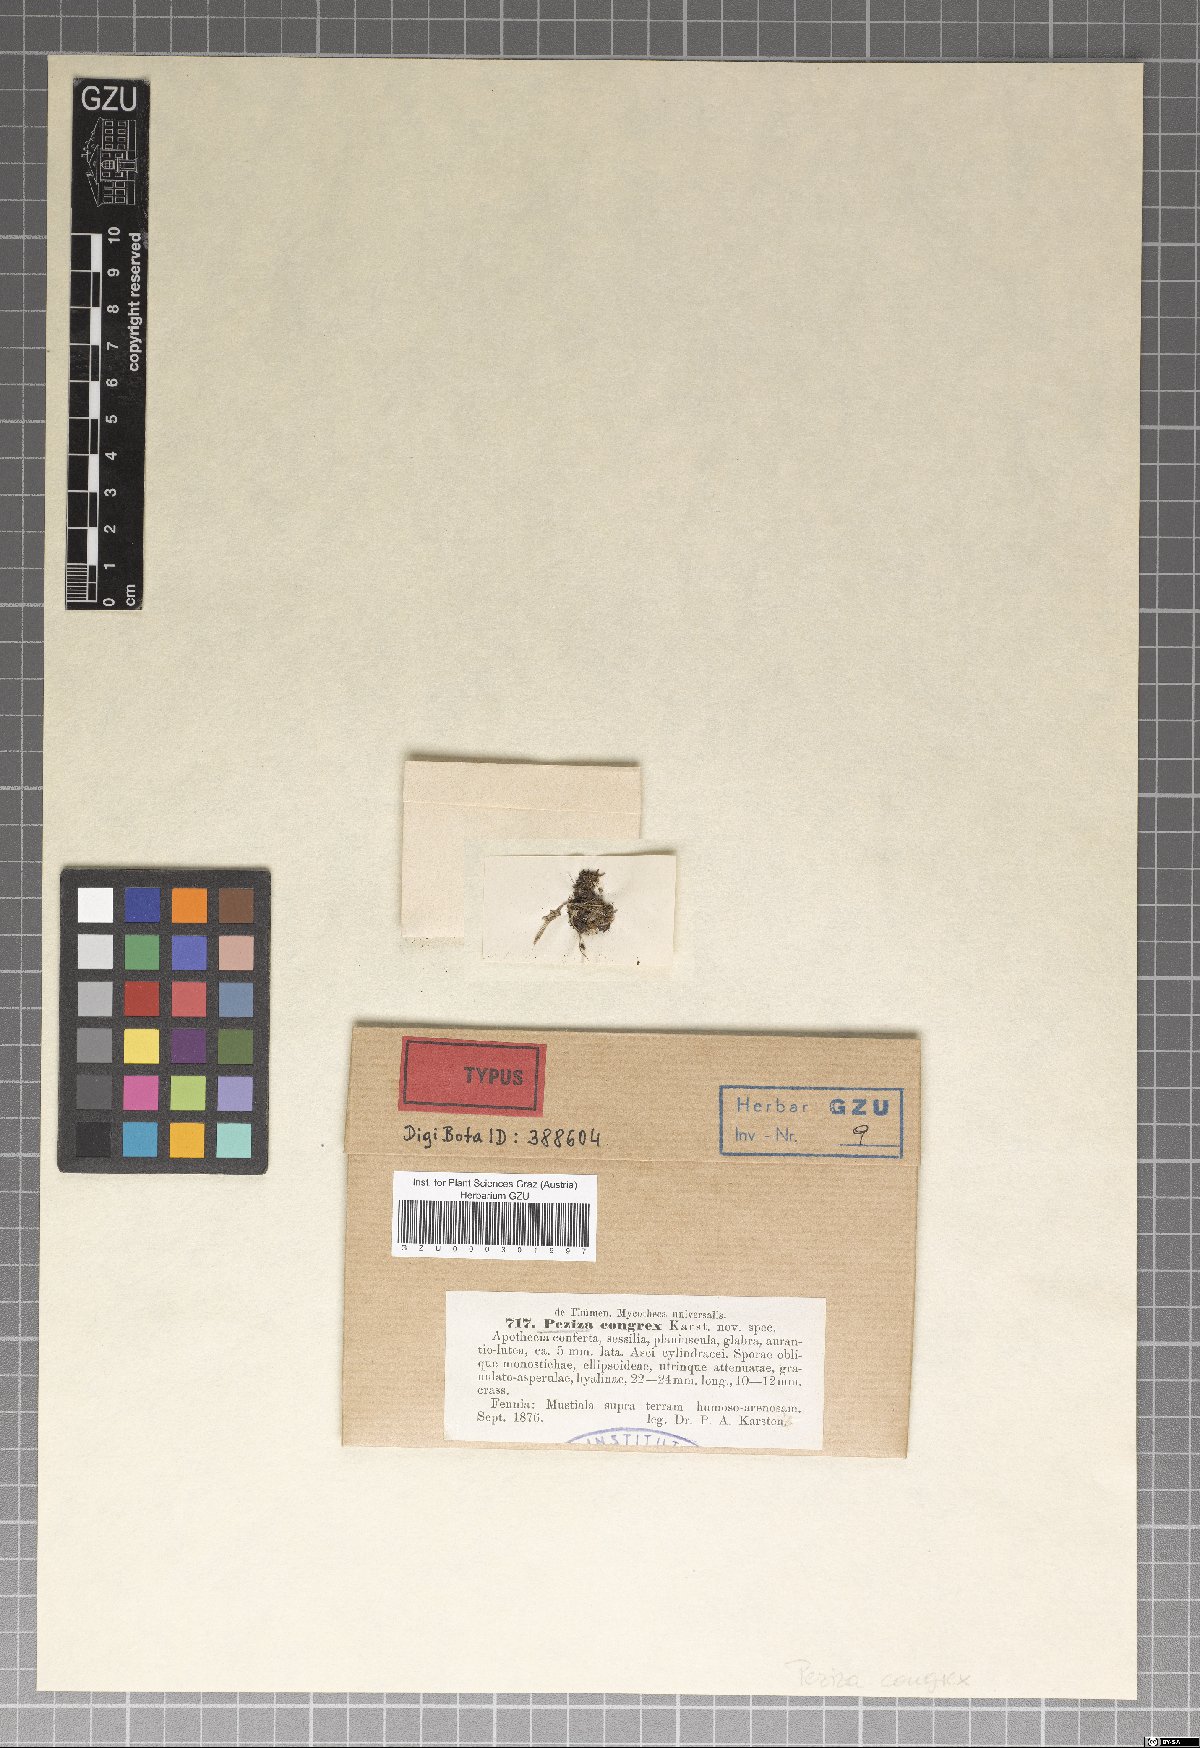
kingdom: Fungi
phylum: Ascomycota
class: Pezizomycetes
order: Pezizales
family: Pezizaceae
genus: Peziza
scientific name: Peziza congrex
